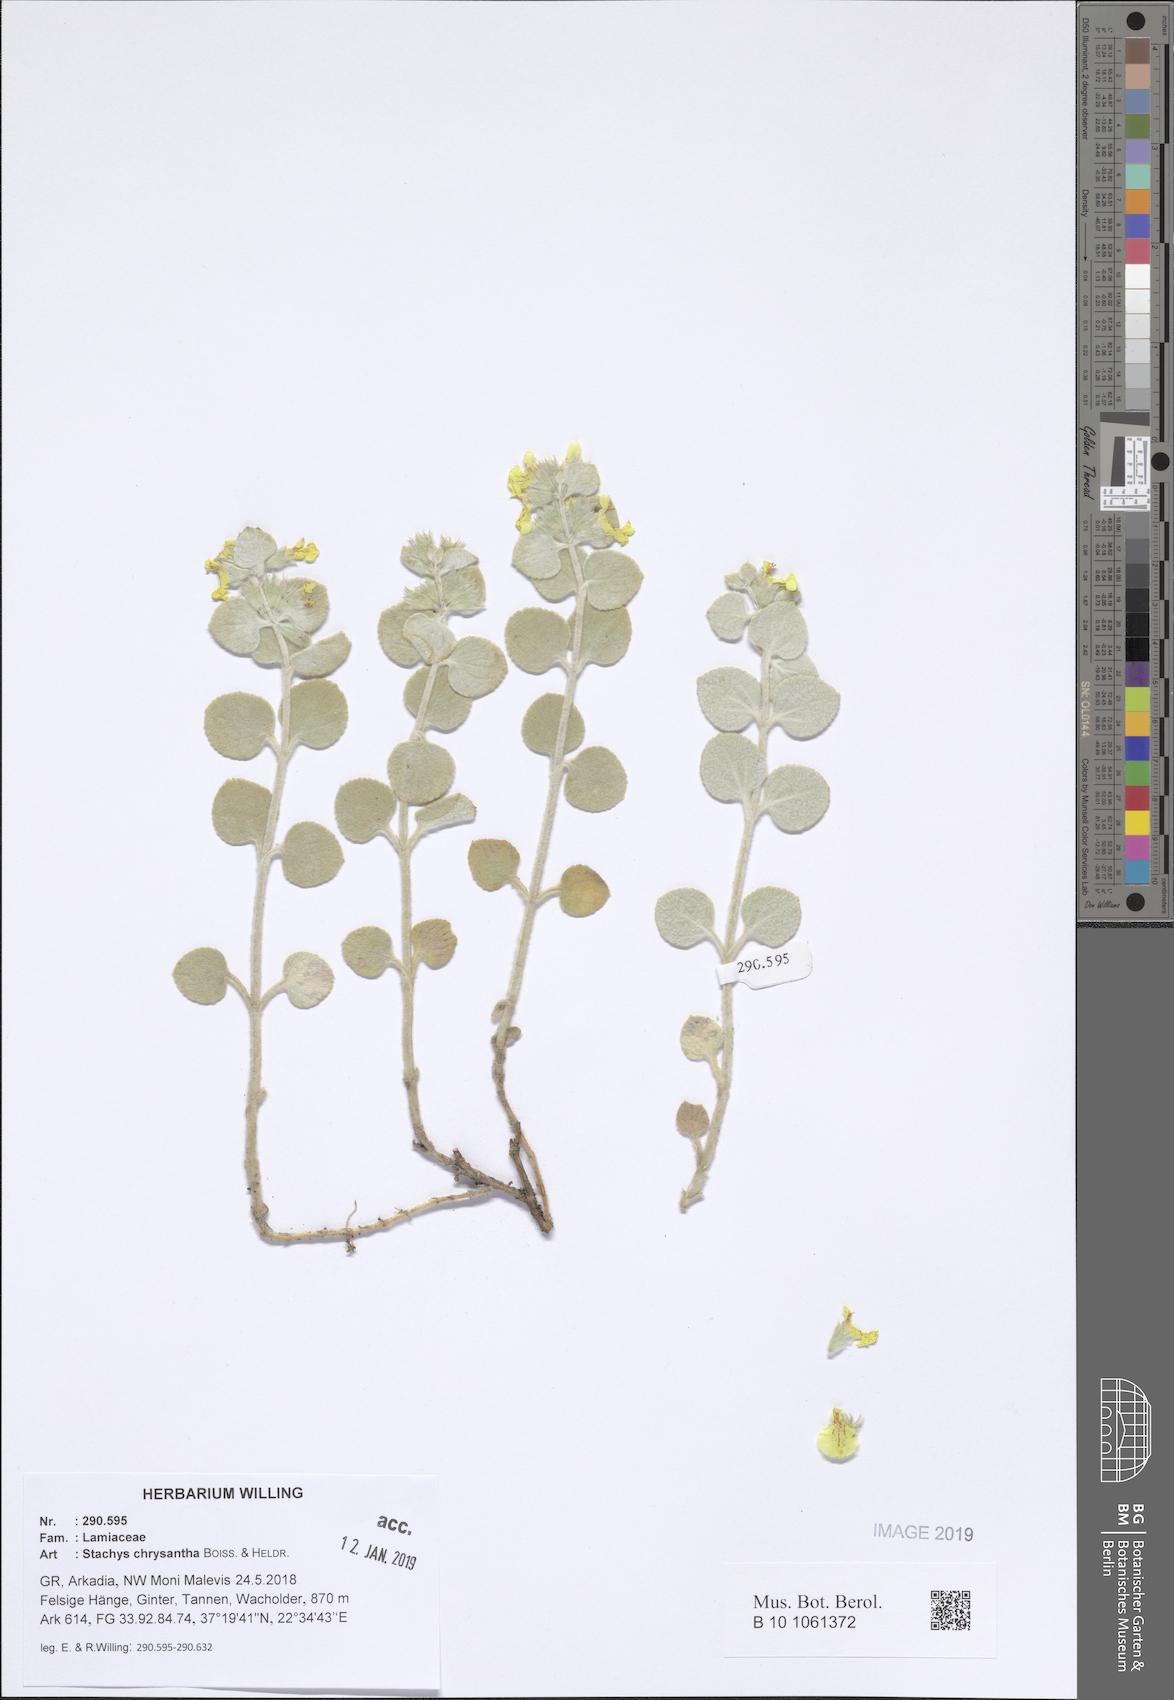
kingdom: Plantae
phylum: Tracheophyta
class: Magnoliopsida
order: Lamiales
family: Lamiaceae
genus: Stachys
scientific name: Stachys chrysantha
